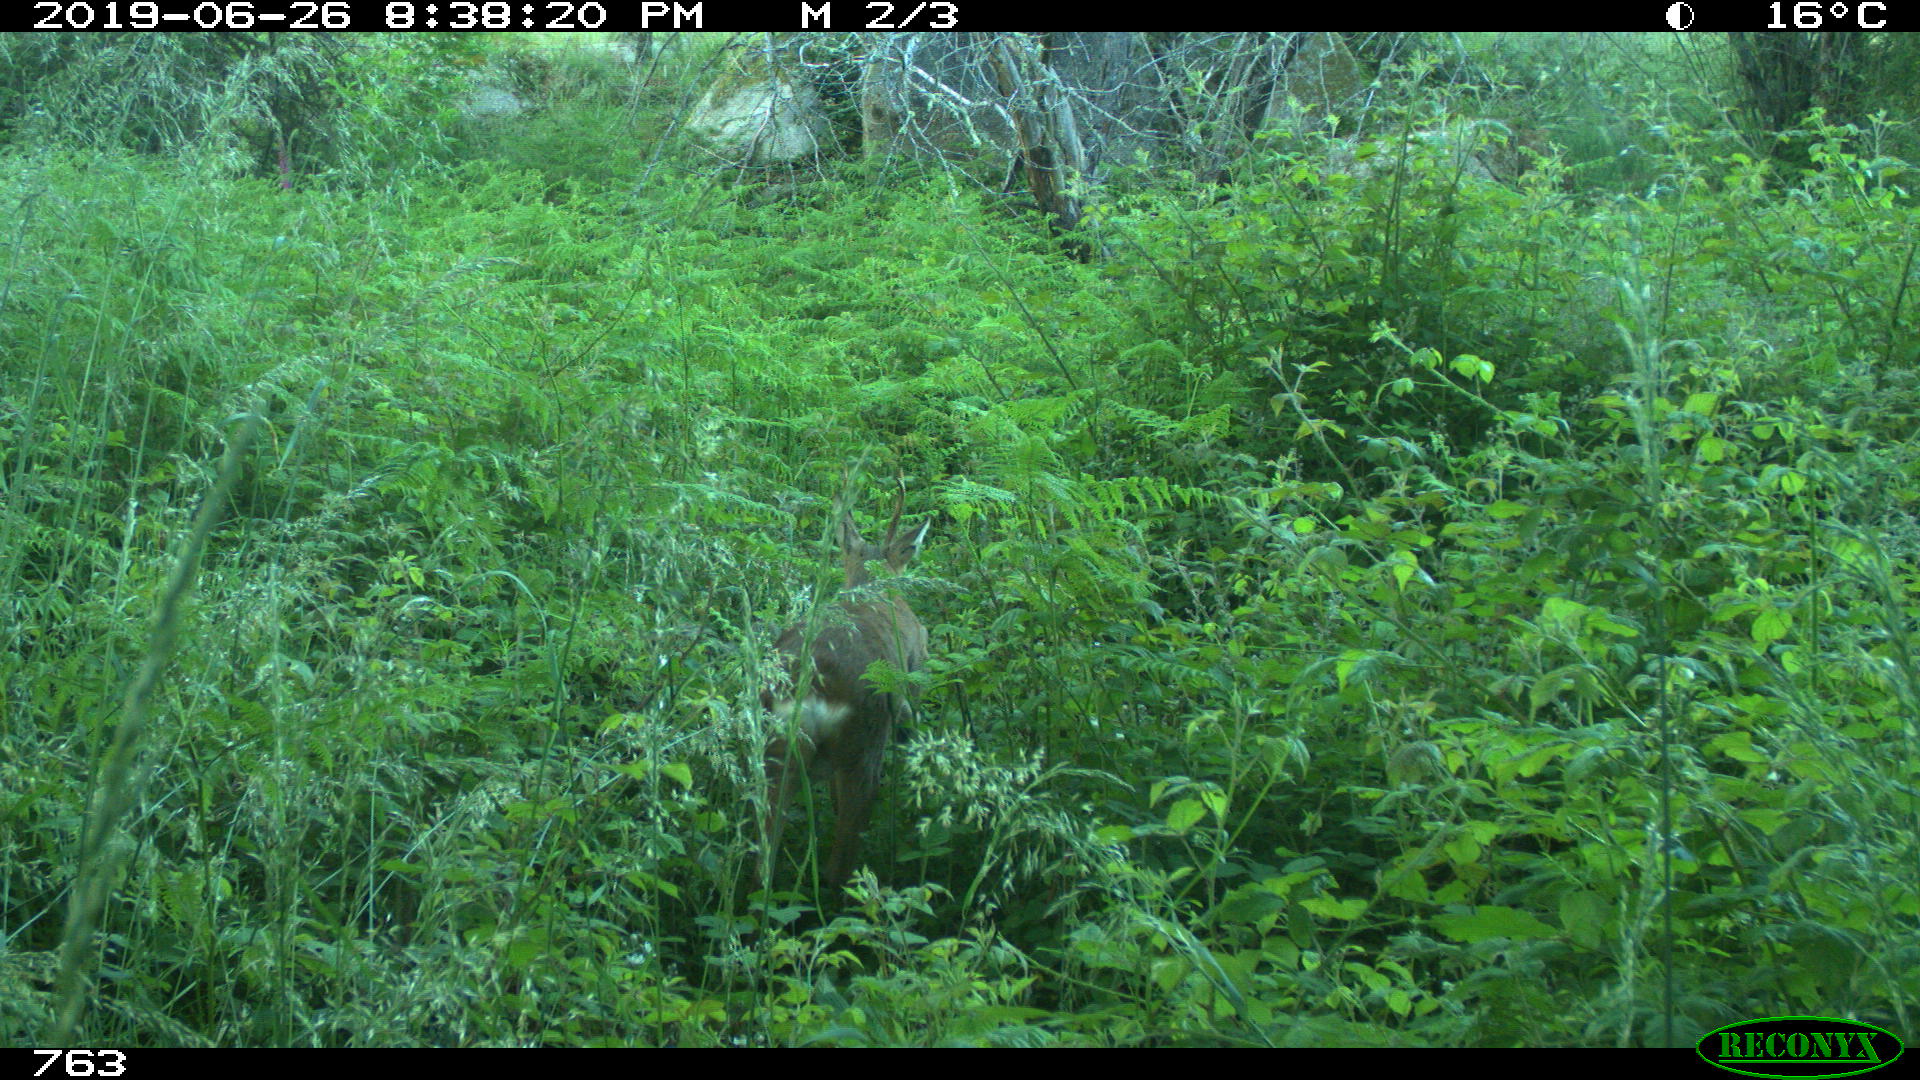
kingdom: Animalia
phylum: Chordata
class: Mammalia
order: Artiodactyla
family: Cervidae
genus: Capreolus
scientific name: Capreolus capreolus
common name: Western roe deer
